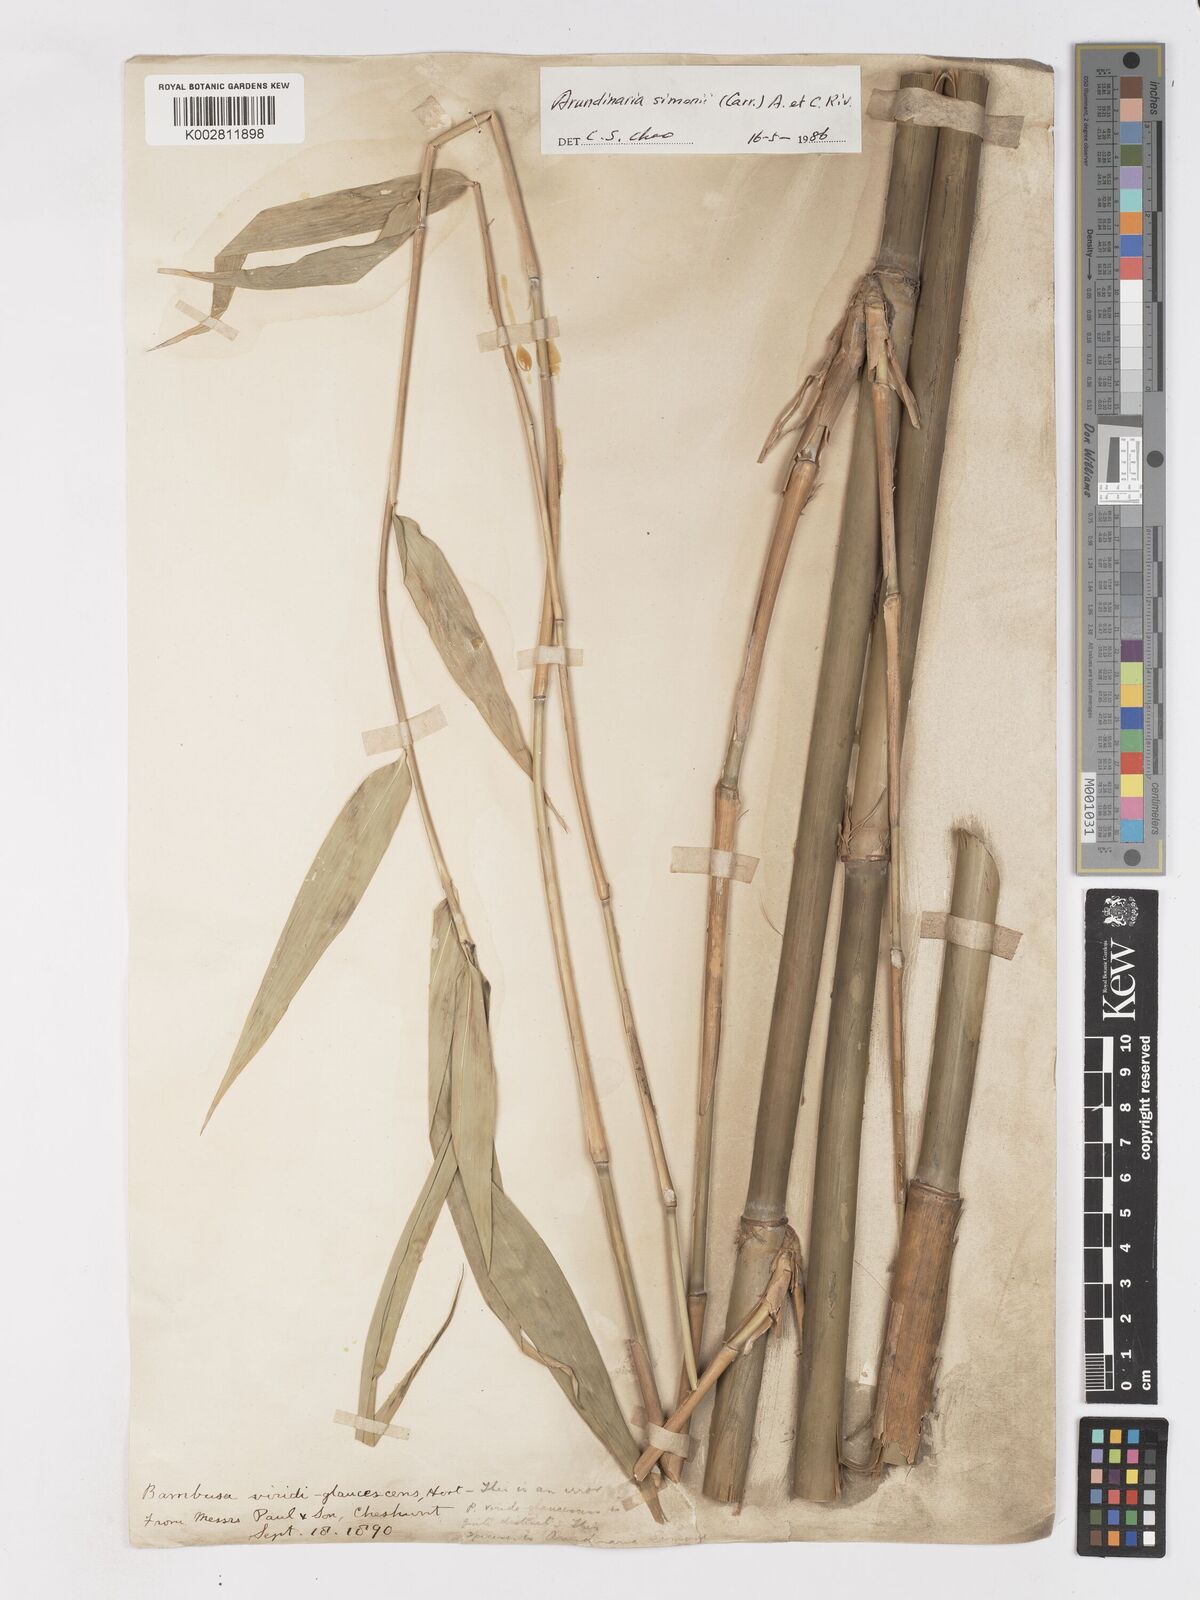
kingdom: Plantae
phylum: Tracheophyta
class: Liliopsida
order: Poales
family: Poaceae
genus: Pleioblastus
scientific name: Pleioblastus simonii
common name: Simon bamboo
